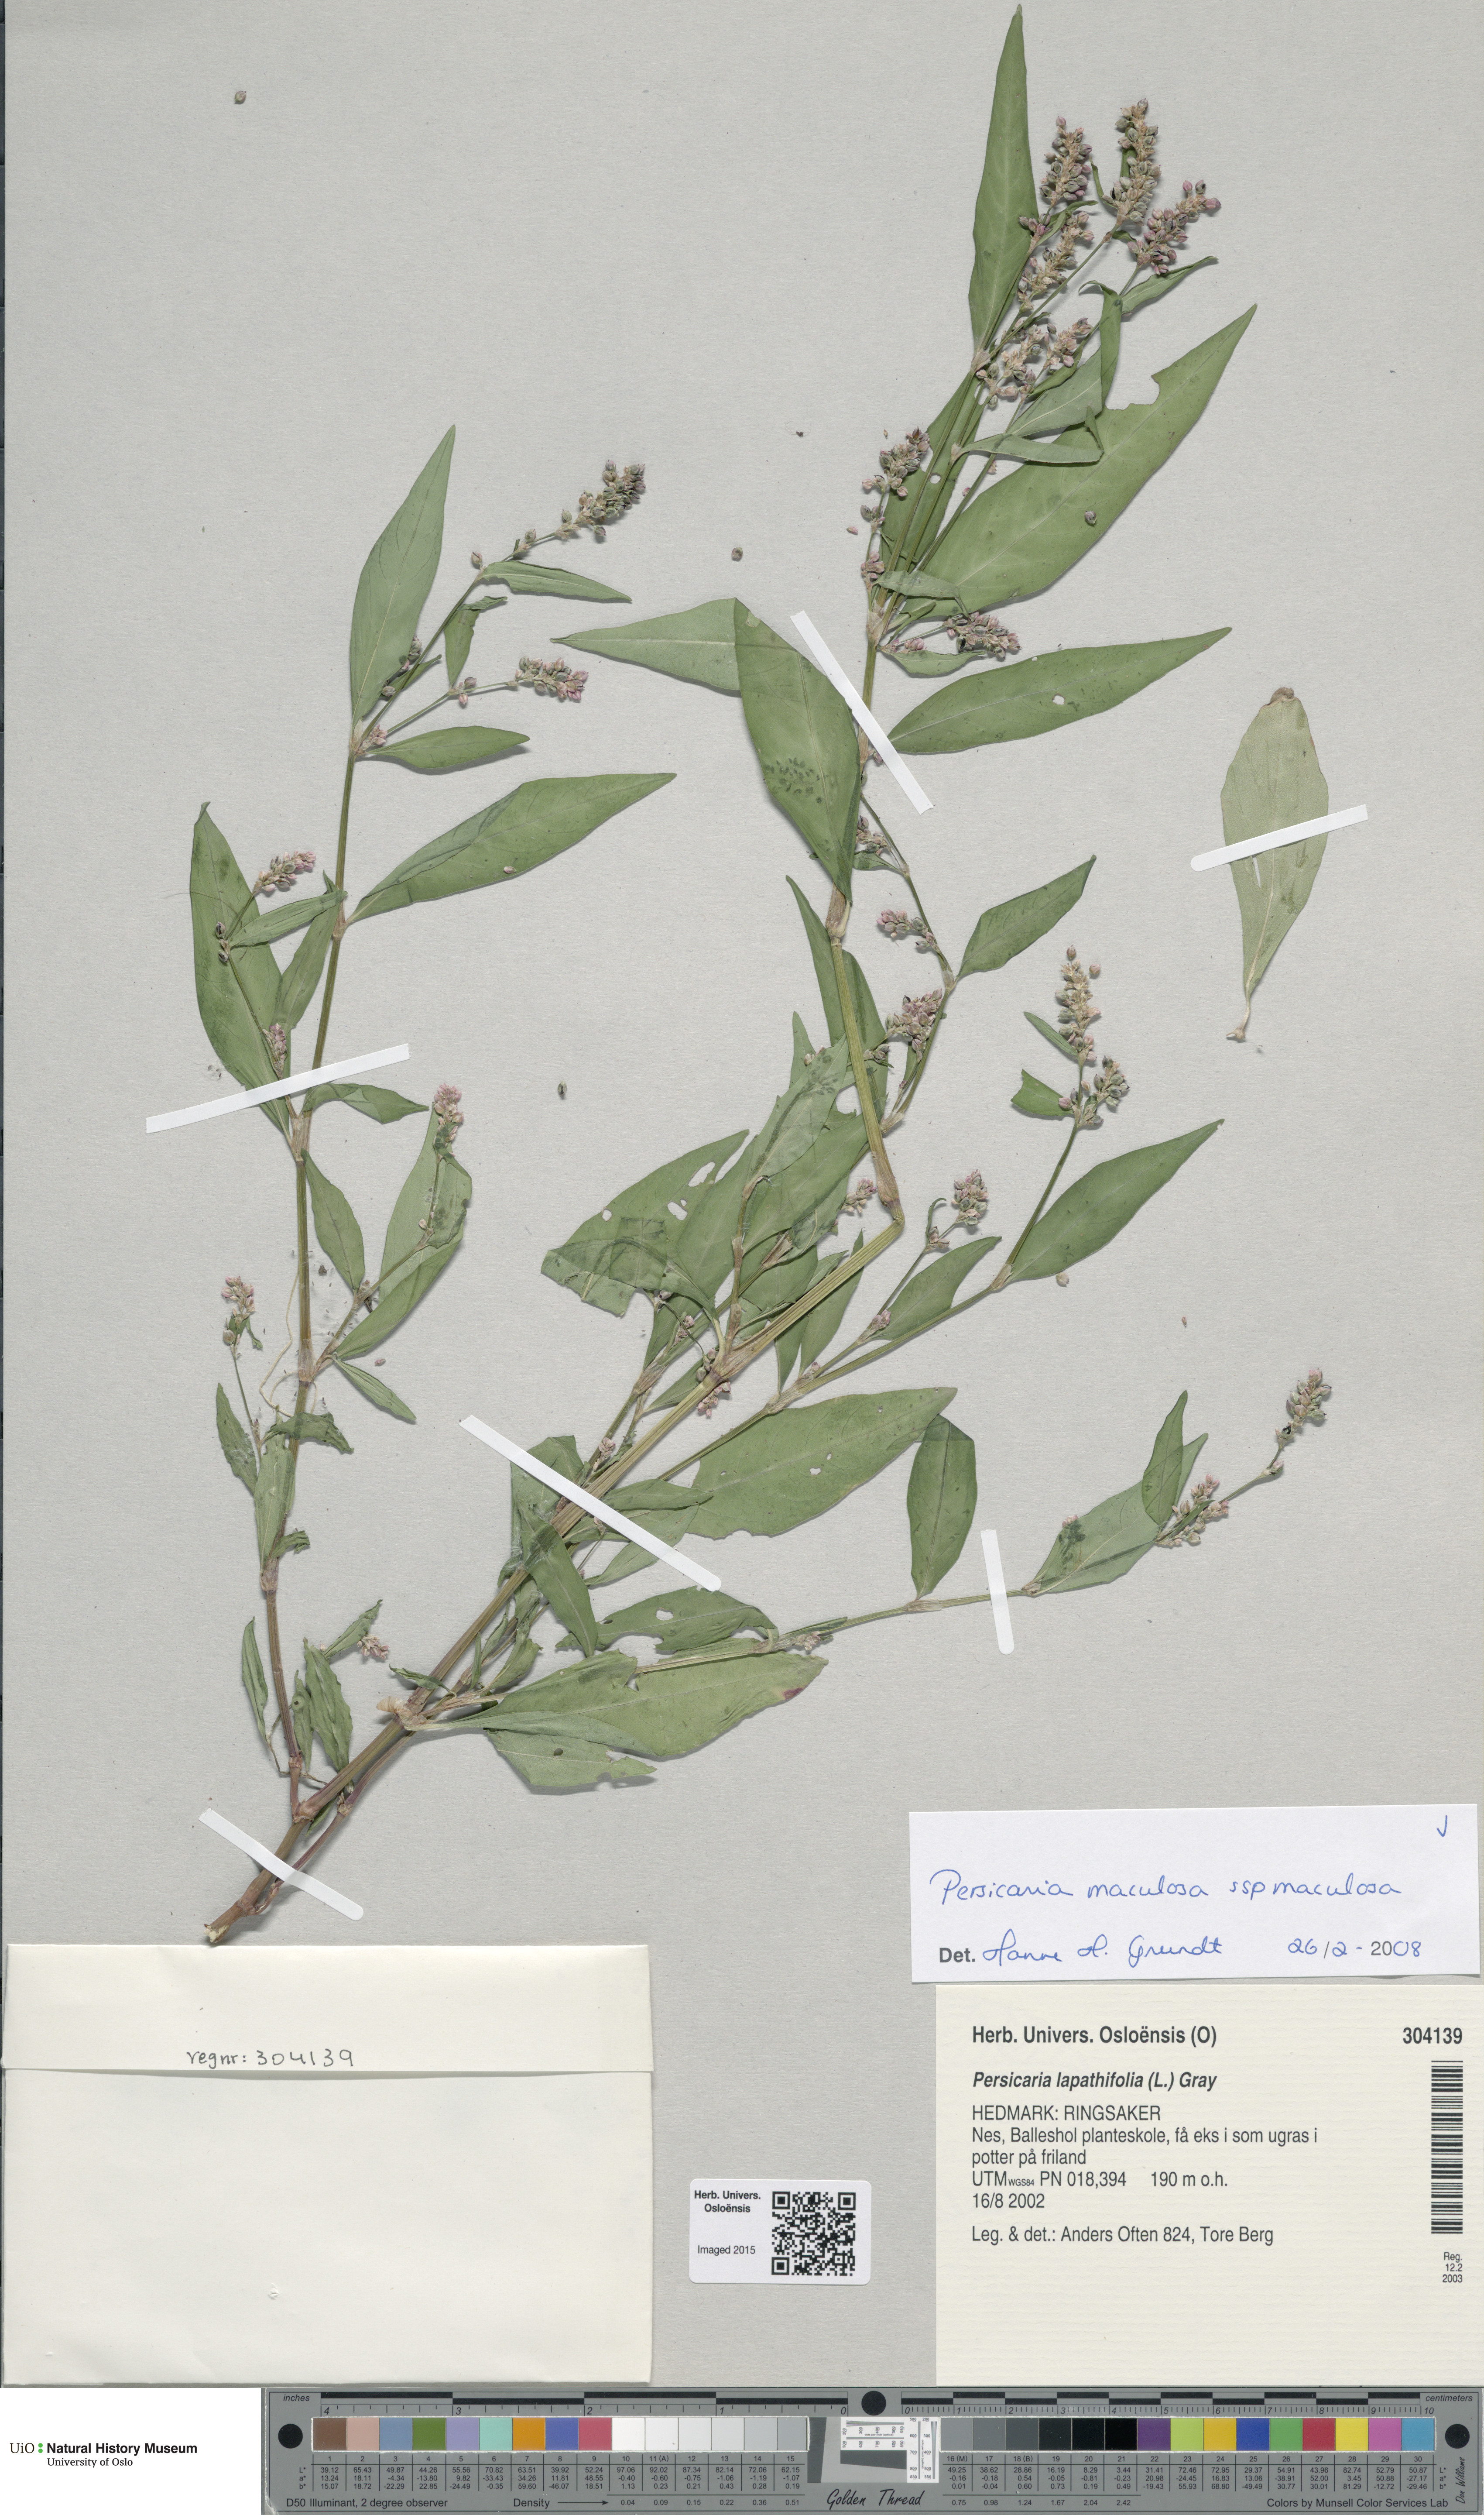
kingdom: Plantae
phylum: Tracheophyta
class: Magnoliopsida
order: Caryophyllales
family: Polygonaceae
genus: Persicaria
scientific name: Persicaria maculosa
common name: Redshank
